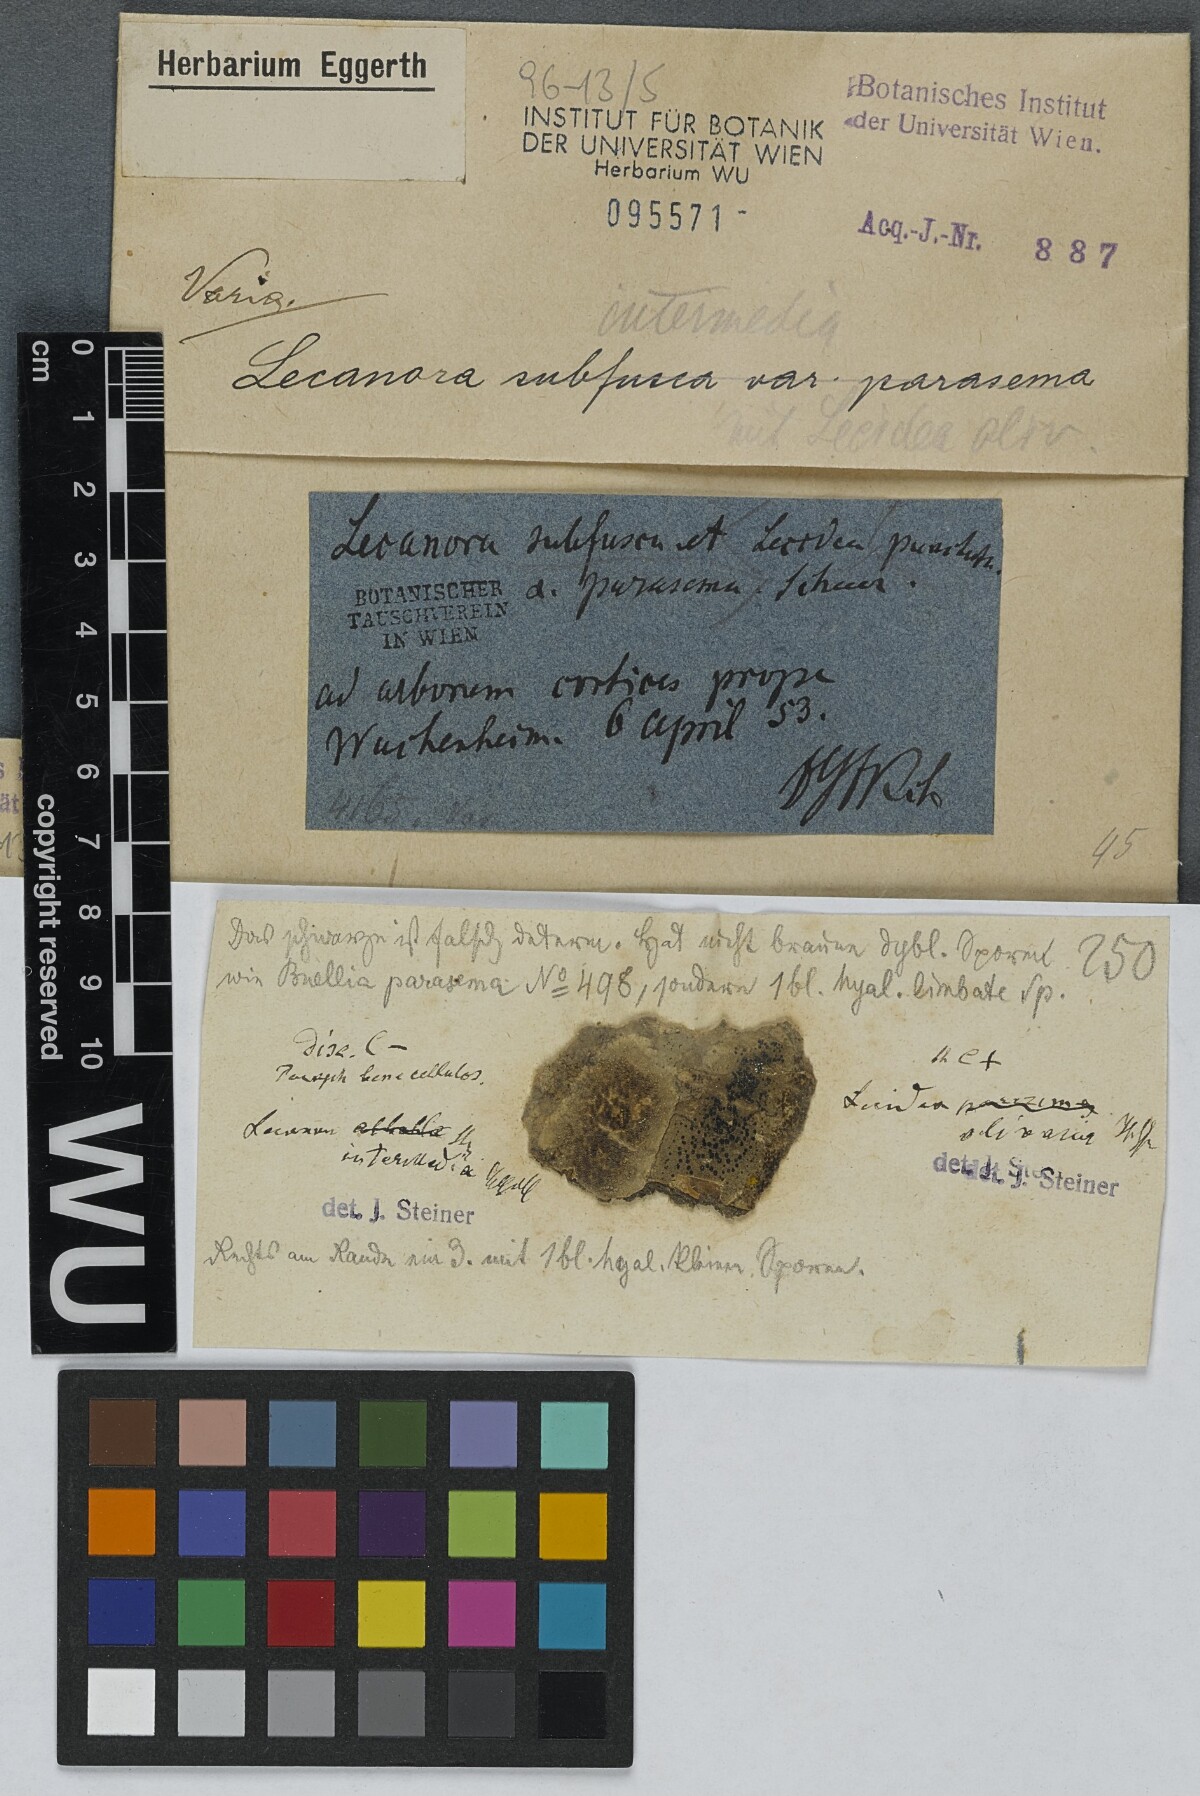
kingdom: Fungi
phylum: Ascomycota
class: Lecanoromycetes
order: Lecanorales
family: Lecanoraceae
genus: Lecanora
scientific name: Lecanora
